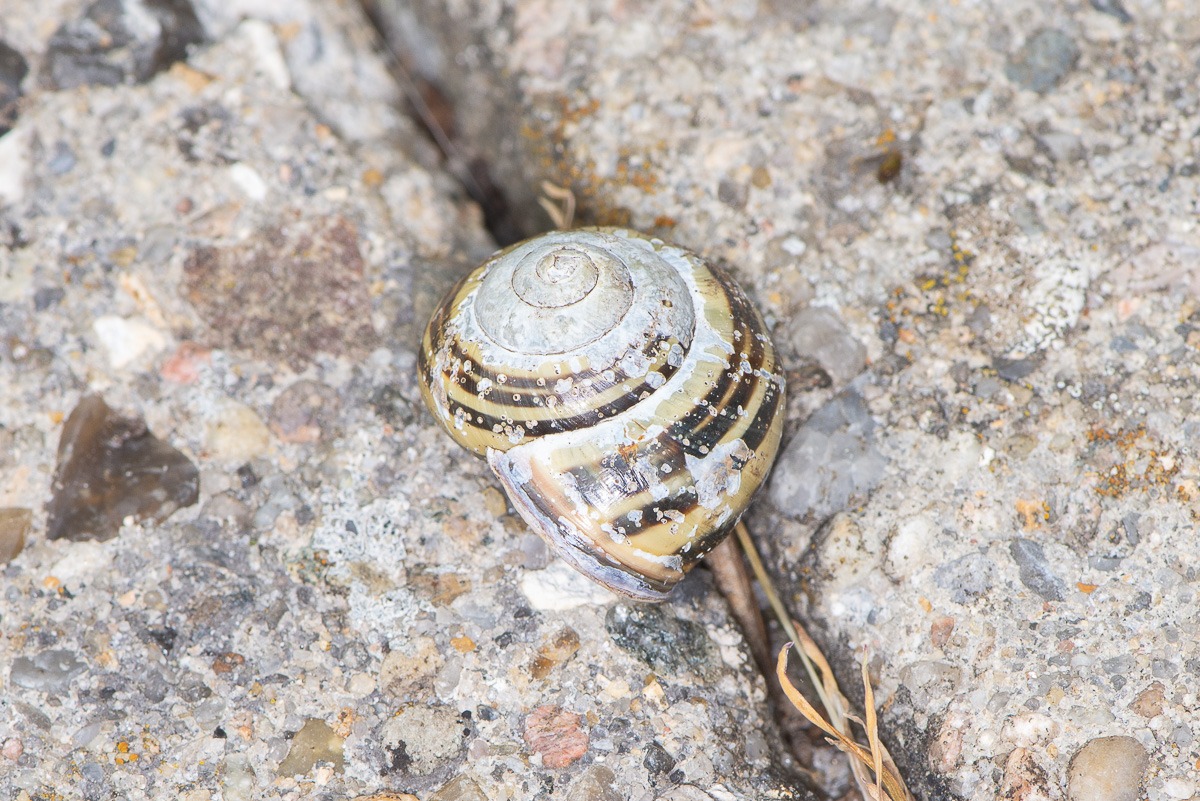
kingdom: Animalia
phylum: Mollusca
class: Gastropoda
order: Stylommatophora
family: Helicidae
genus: Cepaea
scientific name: Cepaea nemoralis
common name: Lundsnegl
